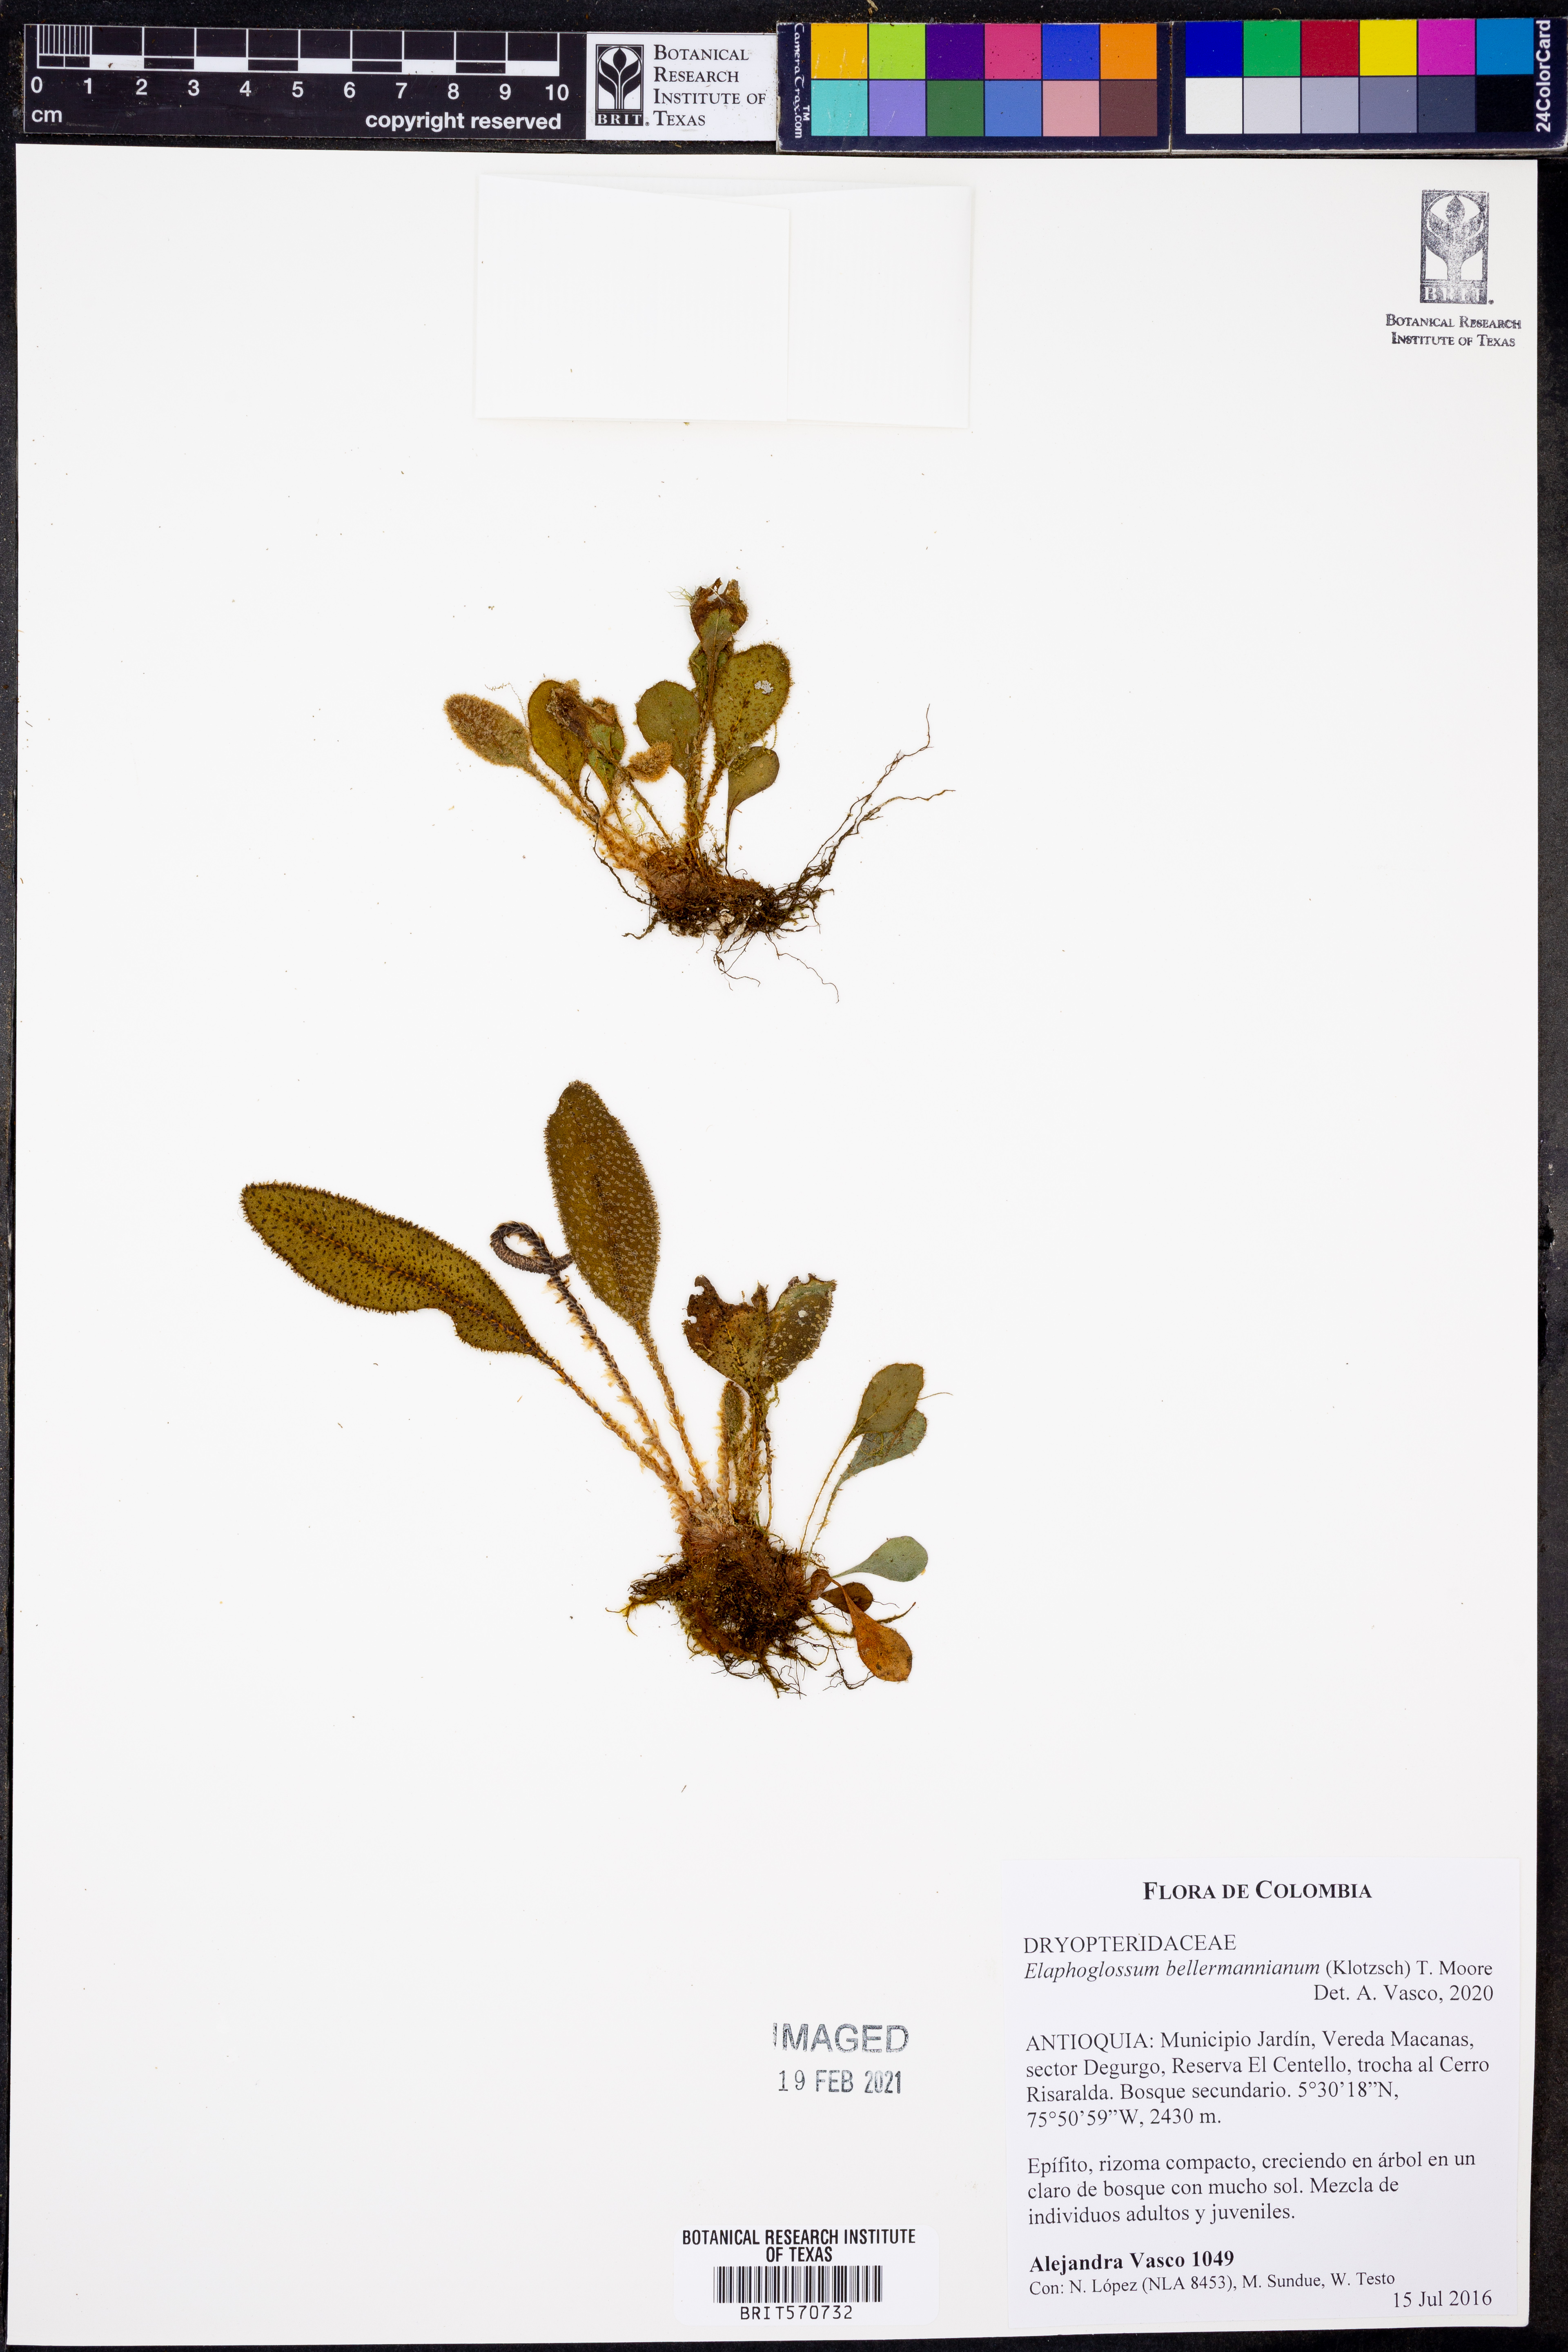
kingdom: Plantae
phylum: Tracheophyta
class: Polypodiopsida
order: Polypodiales
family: Dryopteridaceae
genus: Elaphoglossum
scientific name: Elaphoglossum bellermannianum
